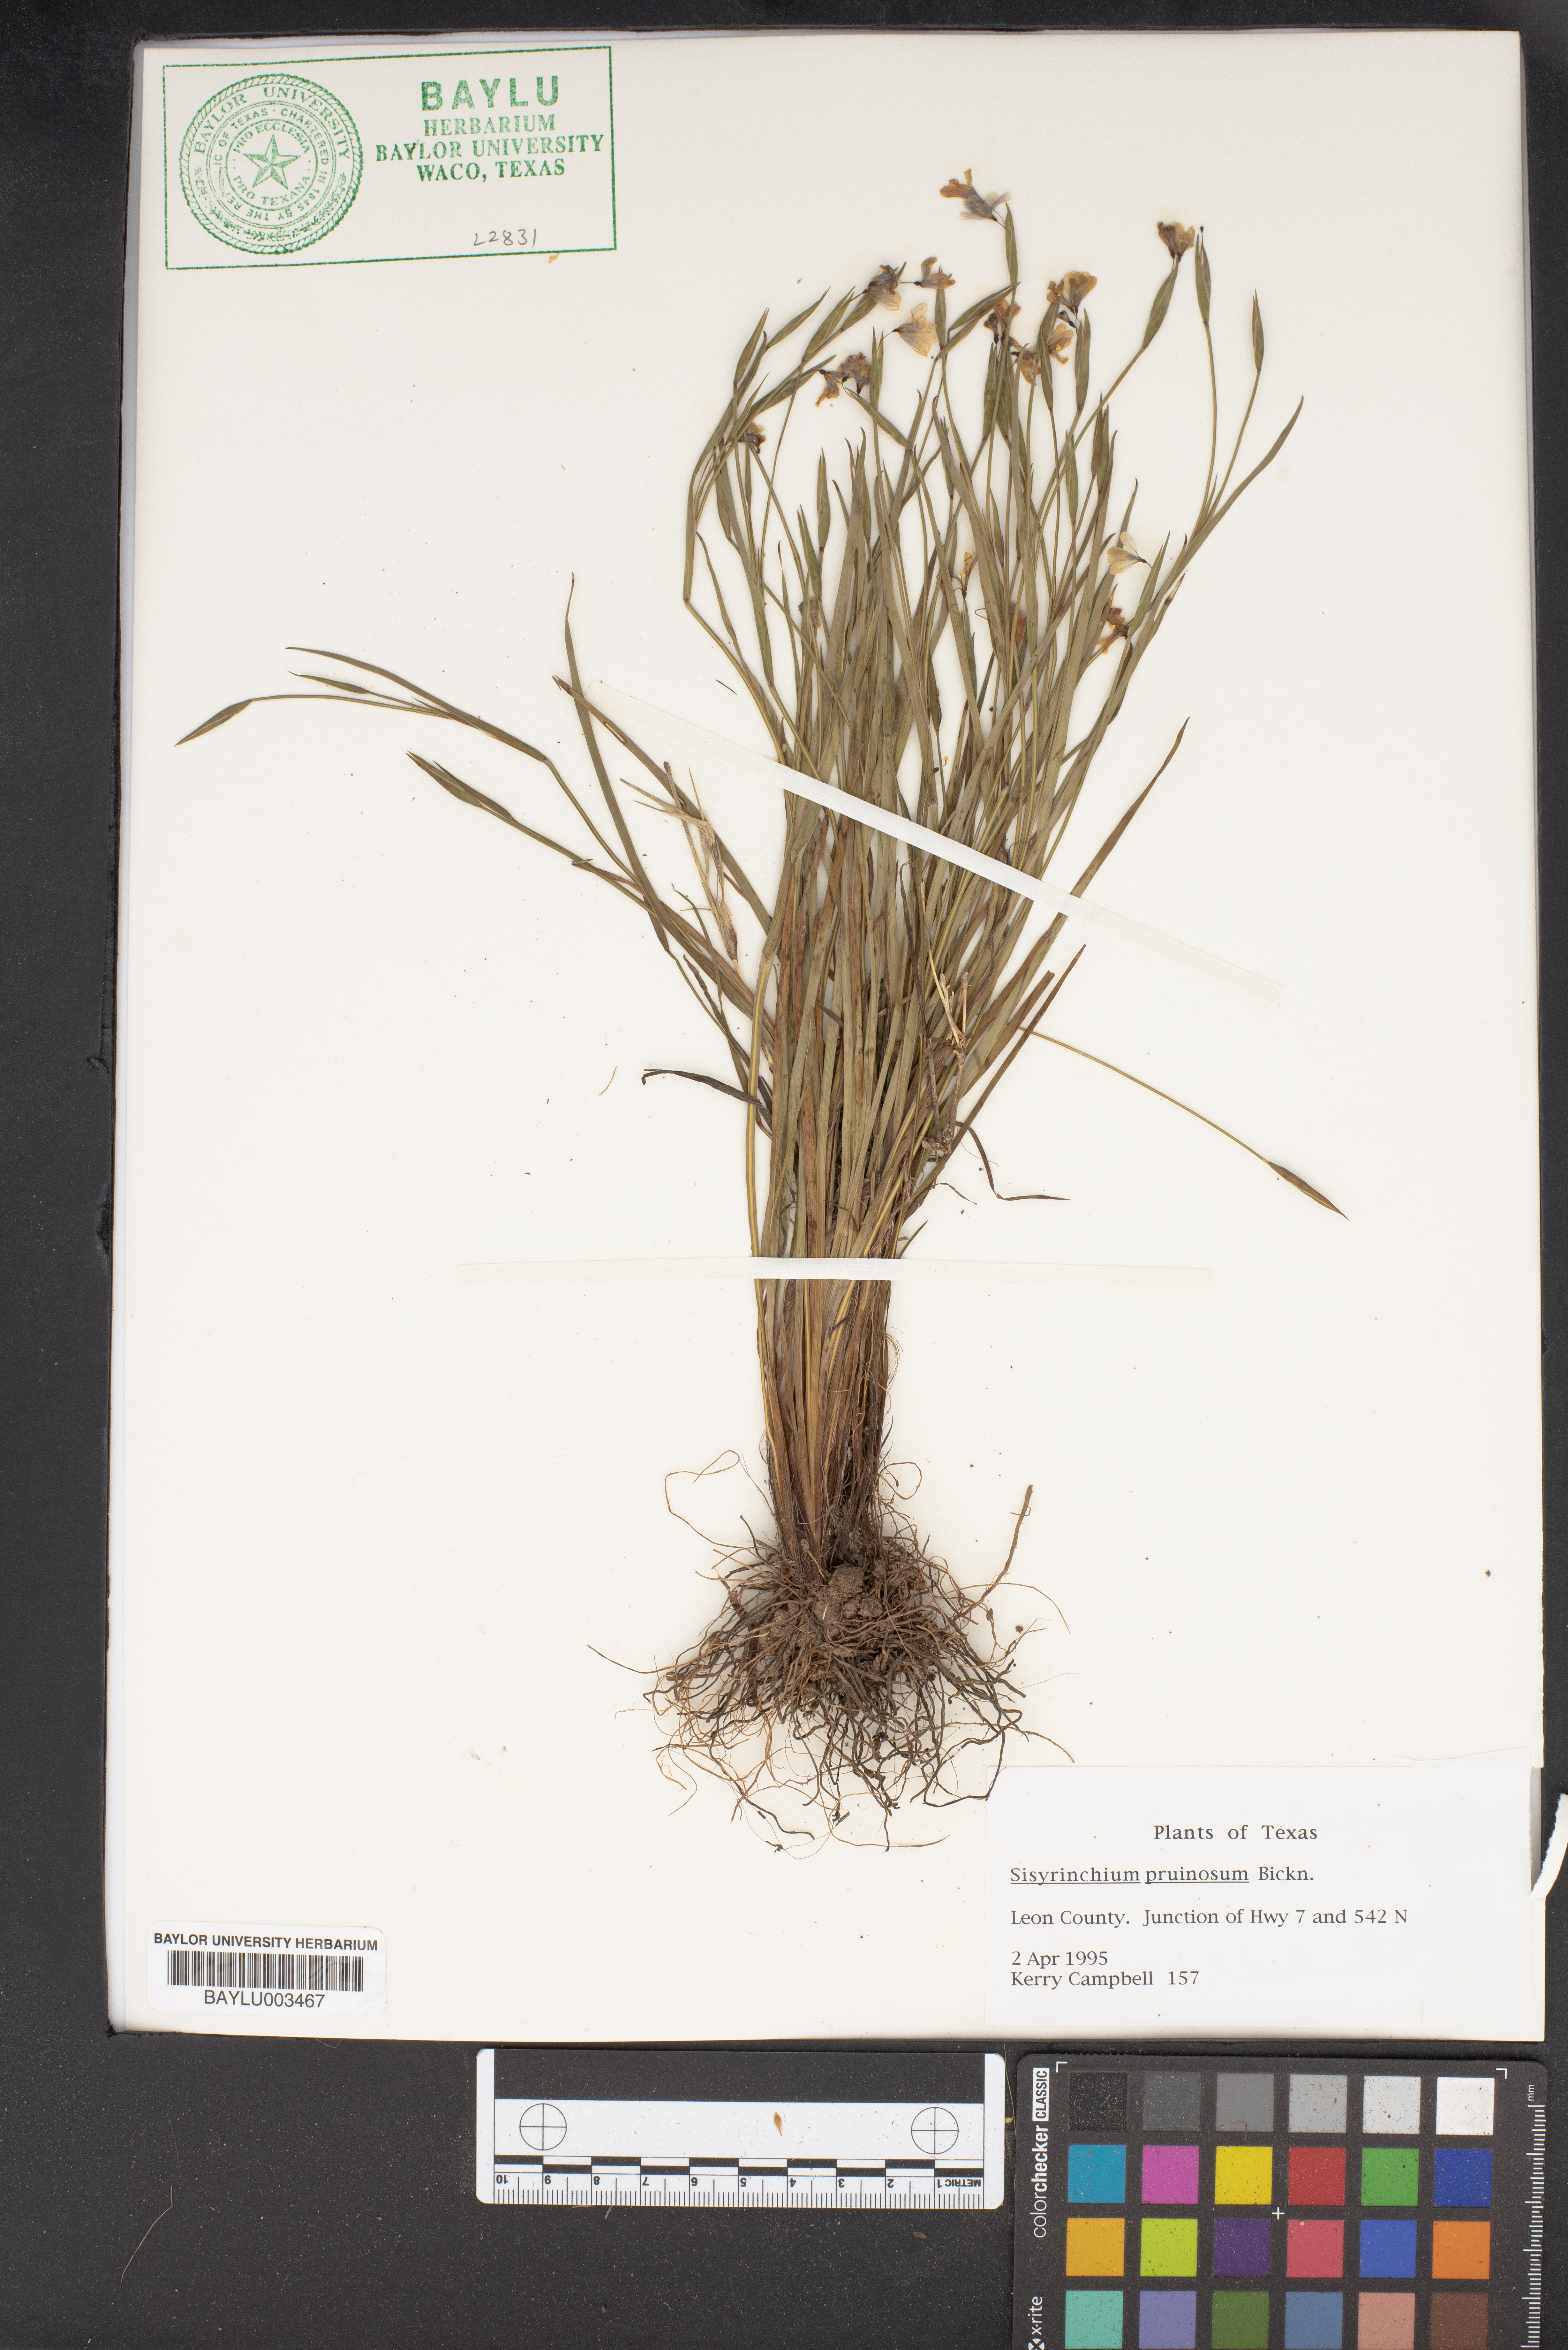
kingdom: Plantae
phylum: Tracheophyta
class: Liliopsida
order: Asparagales
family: Iridaceae
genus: Sisyrenchium
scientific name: Sisyrenchium
